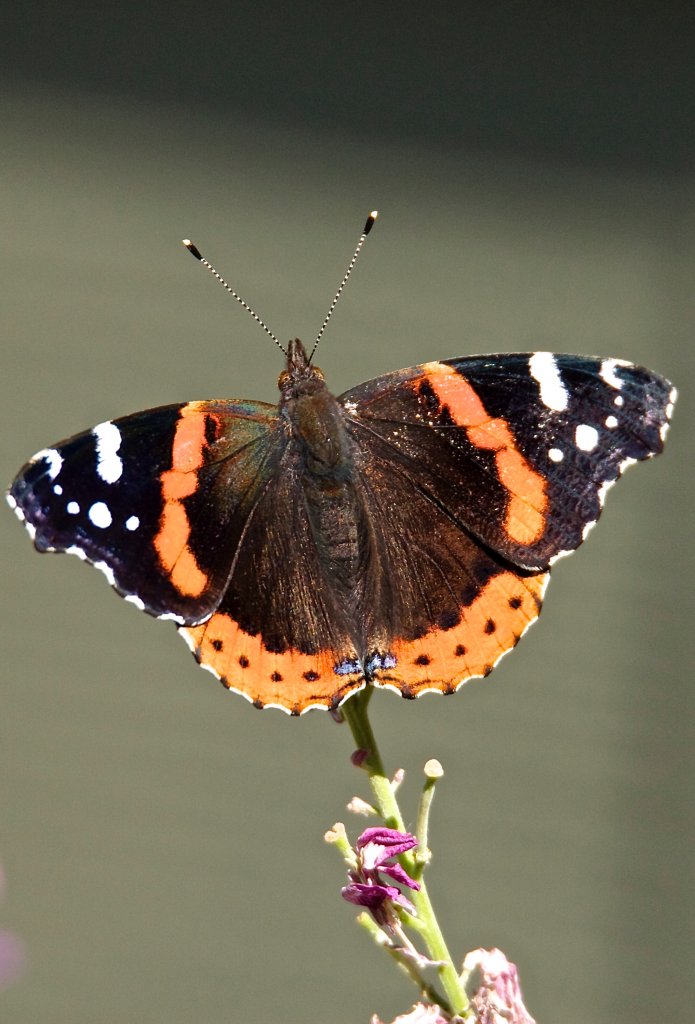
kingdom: Animalia
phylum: Arthropoda
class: Insecta
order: Lepidoptera
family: Nymphalidae
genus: Vanessa
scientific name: Vanessa atalanta
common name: Red Admiral
